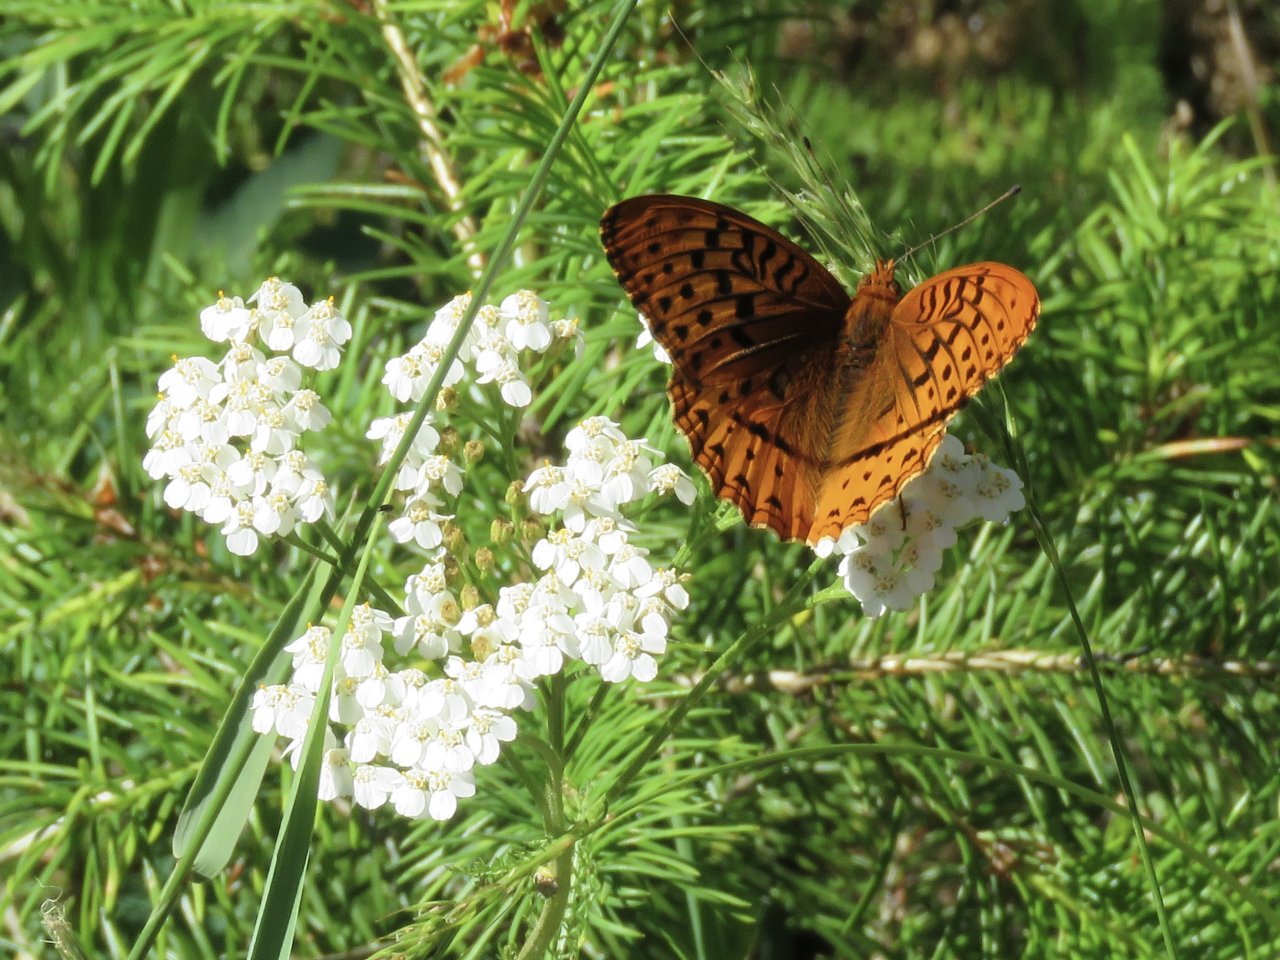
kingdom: Animalia
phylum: Arthropoda
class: Insecta
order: Lepidoptera
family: Nymphalidae
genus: Speyeria
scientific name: Speyeria cybele
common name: Great Spangled Fritillary
